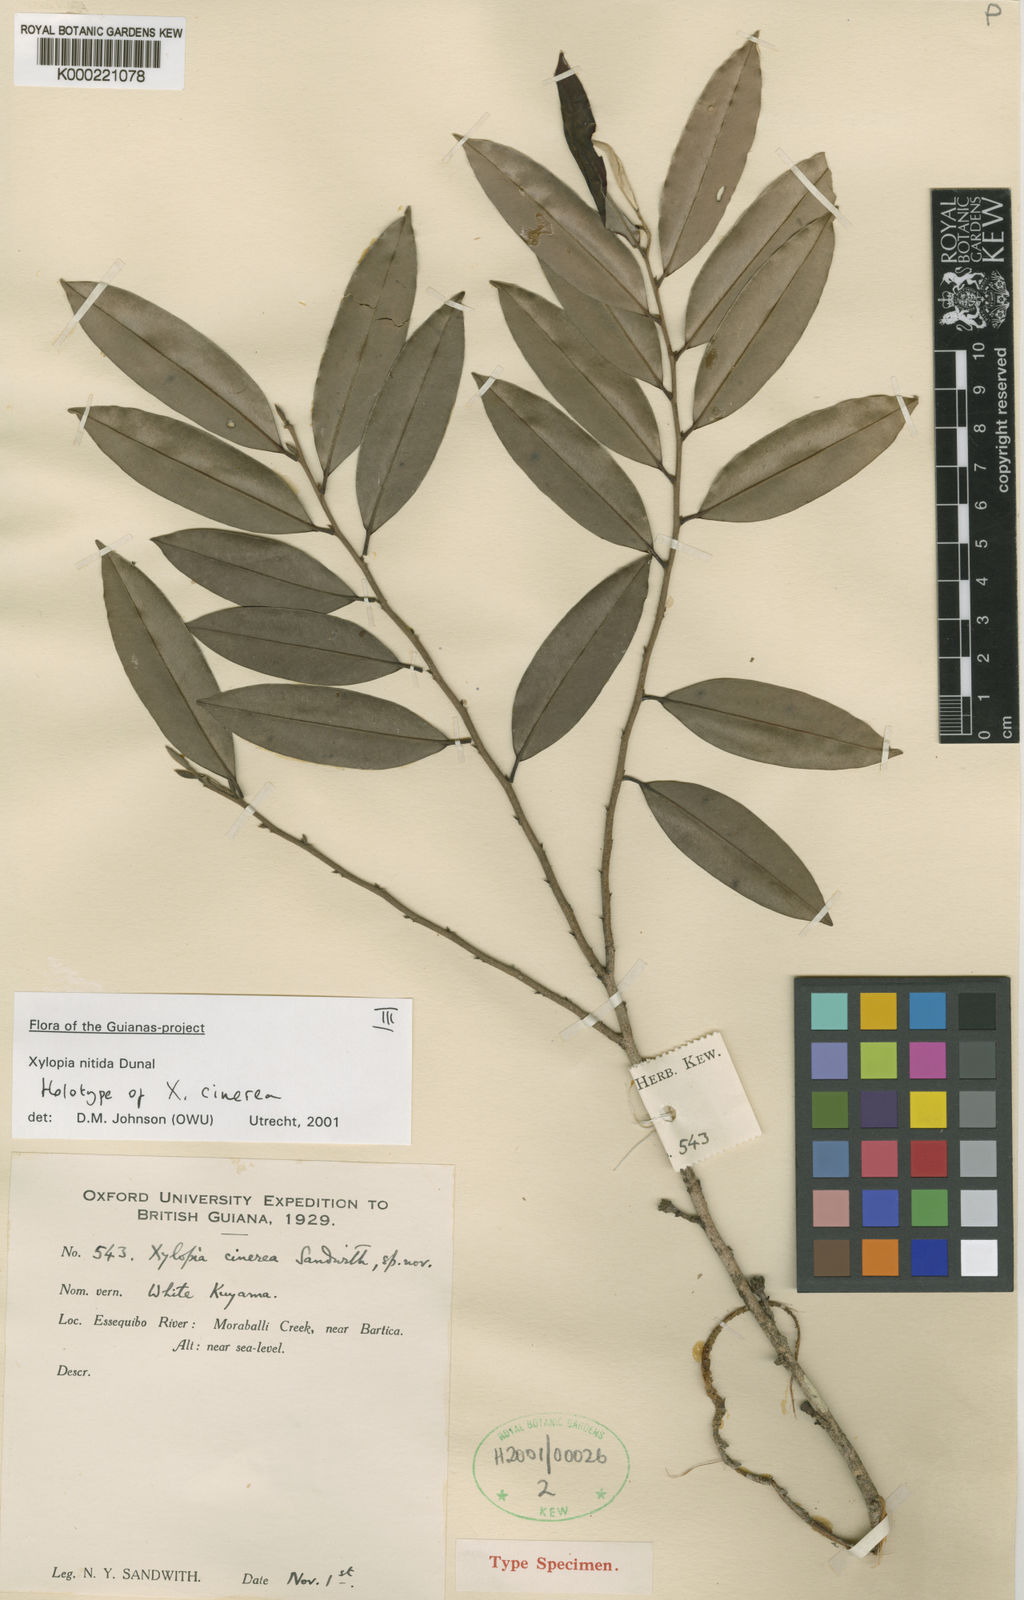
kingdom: Plantae
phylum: Tracheophyta
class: Magnoliopsida
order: Magnoliales
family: Annonaceae
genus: Xylopia
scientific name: Xylopia nitida
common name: White kuyama
